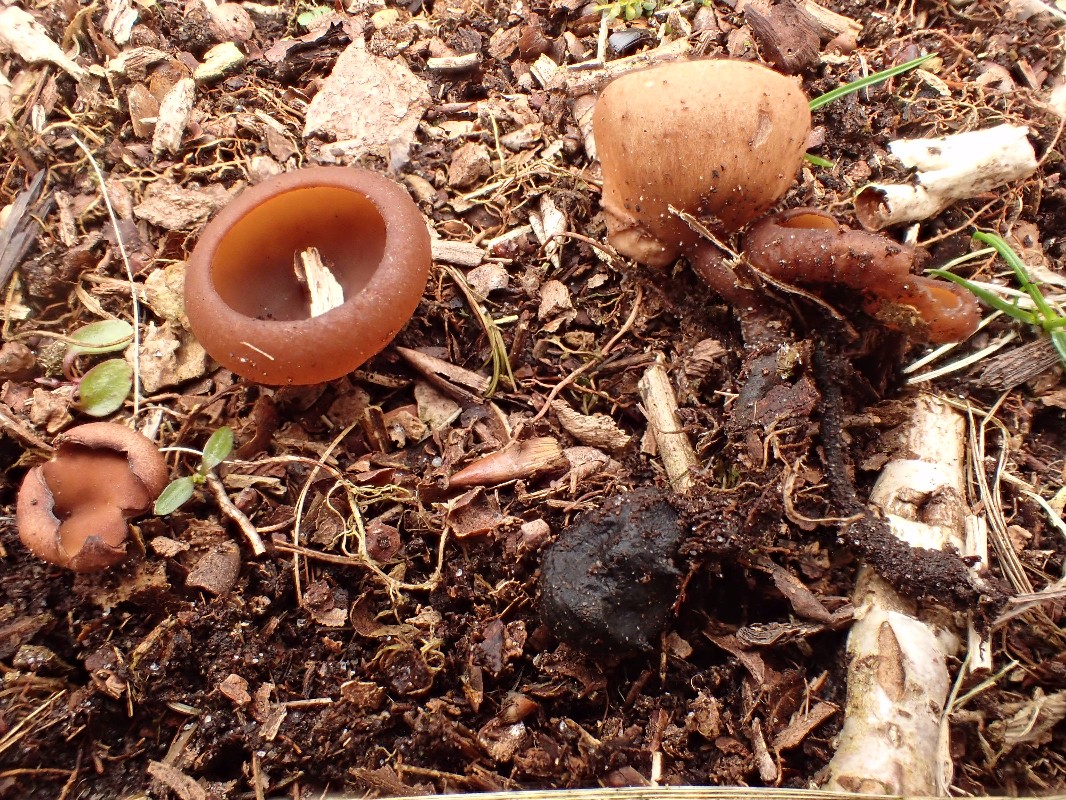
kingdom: Fungi
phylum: Ascomycota
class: Leotiomycetes
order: Helotiales
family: Sclerotiniaceae
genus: Dumontinia
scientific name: Dumontinia tuberosa
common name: anemone-knoldskive
